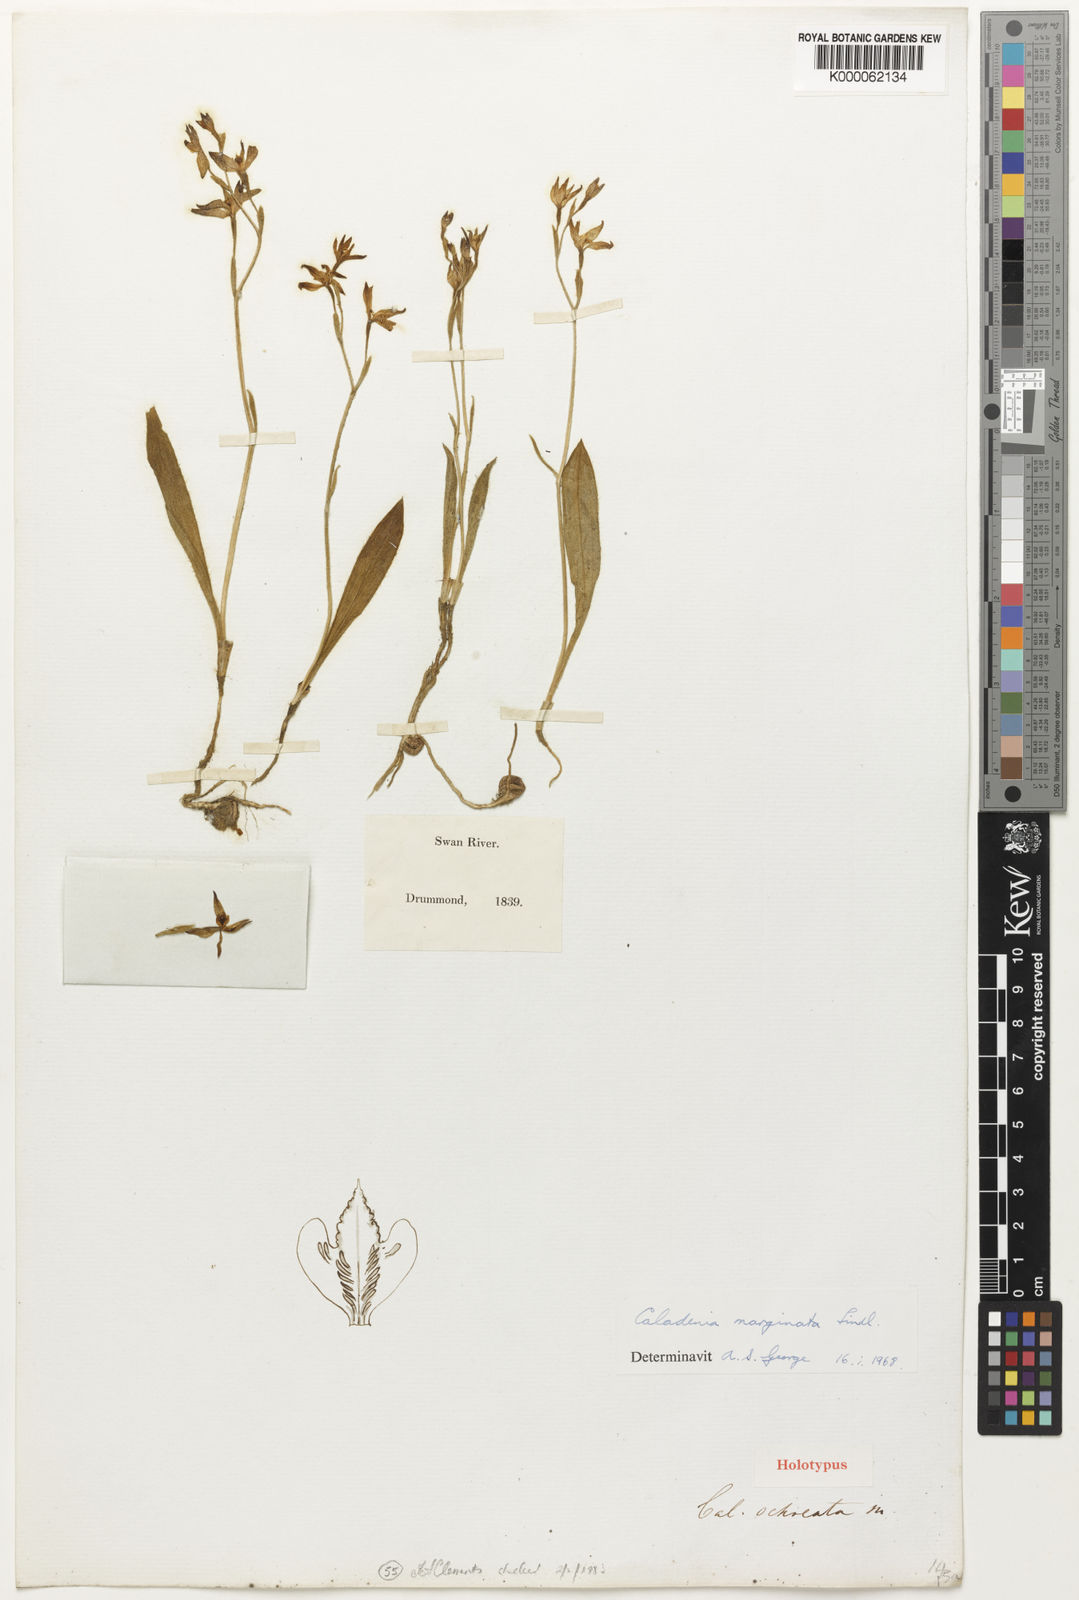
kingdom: Plantae
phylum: Tracheophyta
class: Liliopsida
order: Asparagales
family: Orchidaceae
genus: Caladenia
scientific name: Caladenia marginata
